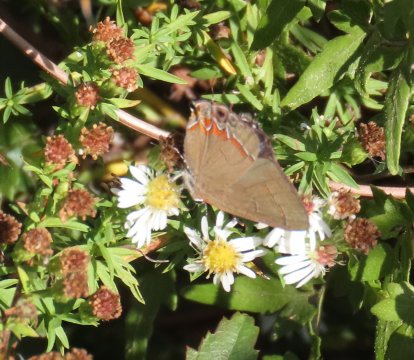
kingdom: Animalia
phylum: Arthropoda
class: Insecta
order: Lepidoptera
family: Lycaenidae
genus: Calycopis
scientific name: Calycopis cecrops
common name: Red-banded Hairstreak
